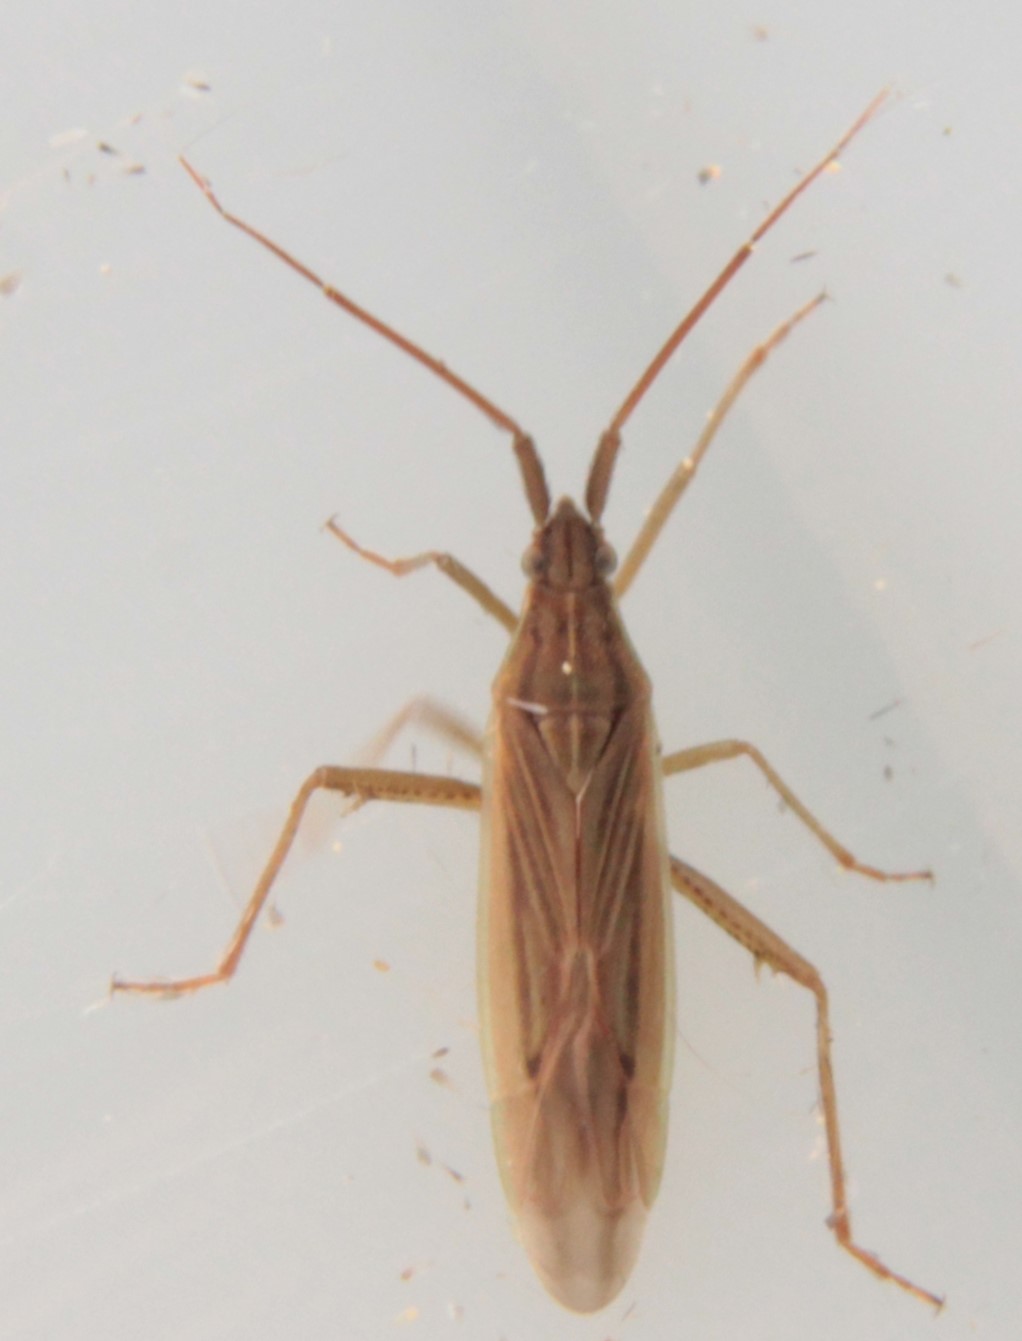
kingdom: Animalia
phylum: Arthropoda
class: Insecta
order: Hemiptera
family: Miridae
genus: Stenodema
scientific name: Stenodema calcarata
